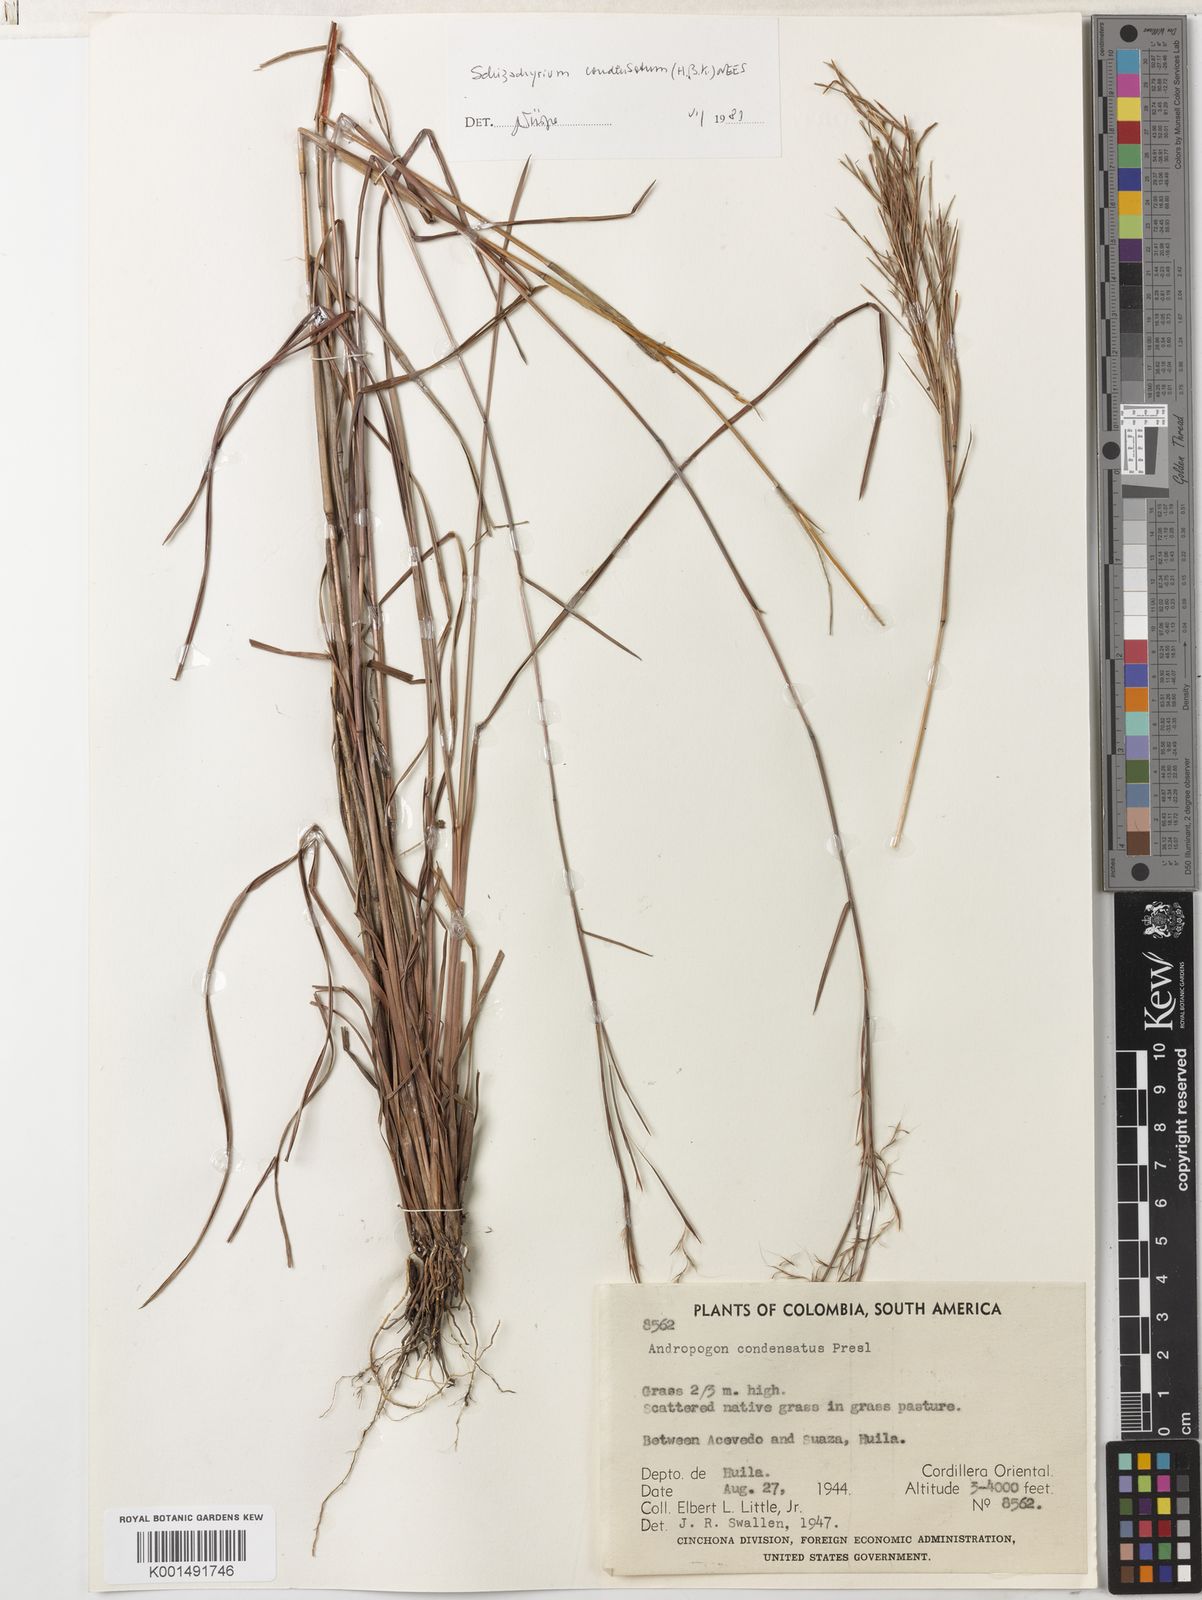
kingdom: Plantae
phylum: Tracheophyta
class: Liliopsida
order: Poales
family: Poaceae
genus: Schizachyrium
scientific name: Schizachyrium condensatum
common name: Bush beardgrass
